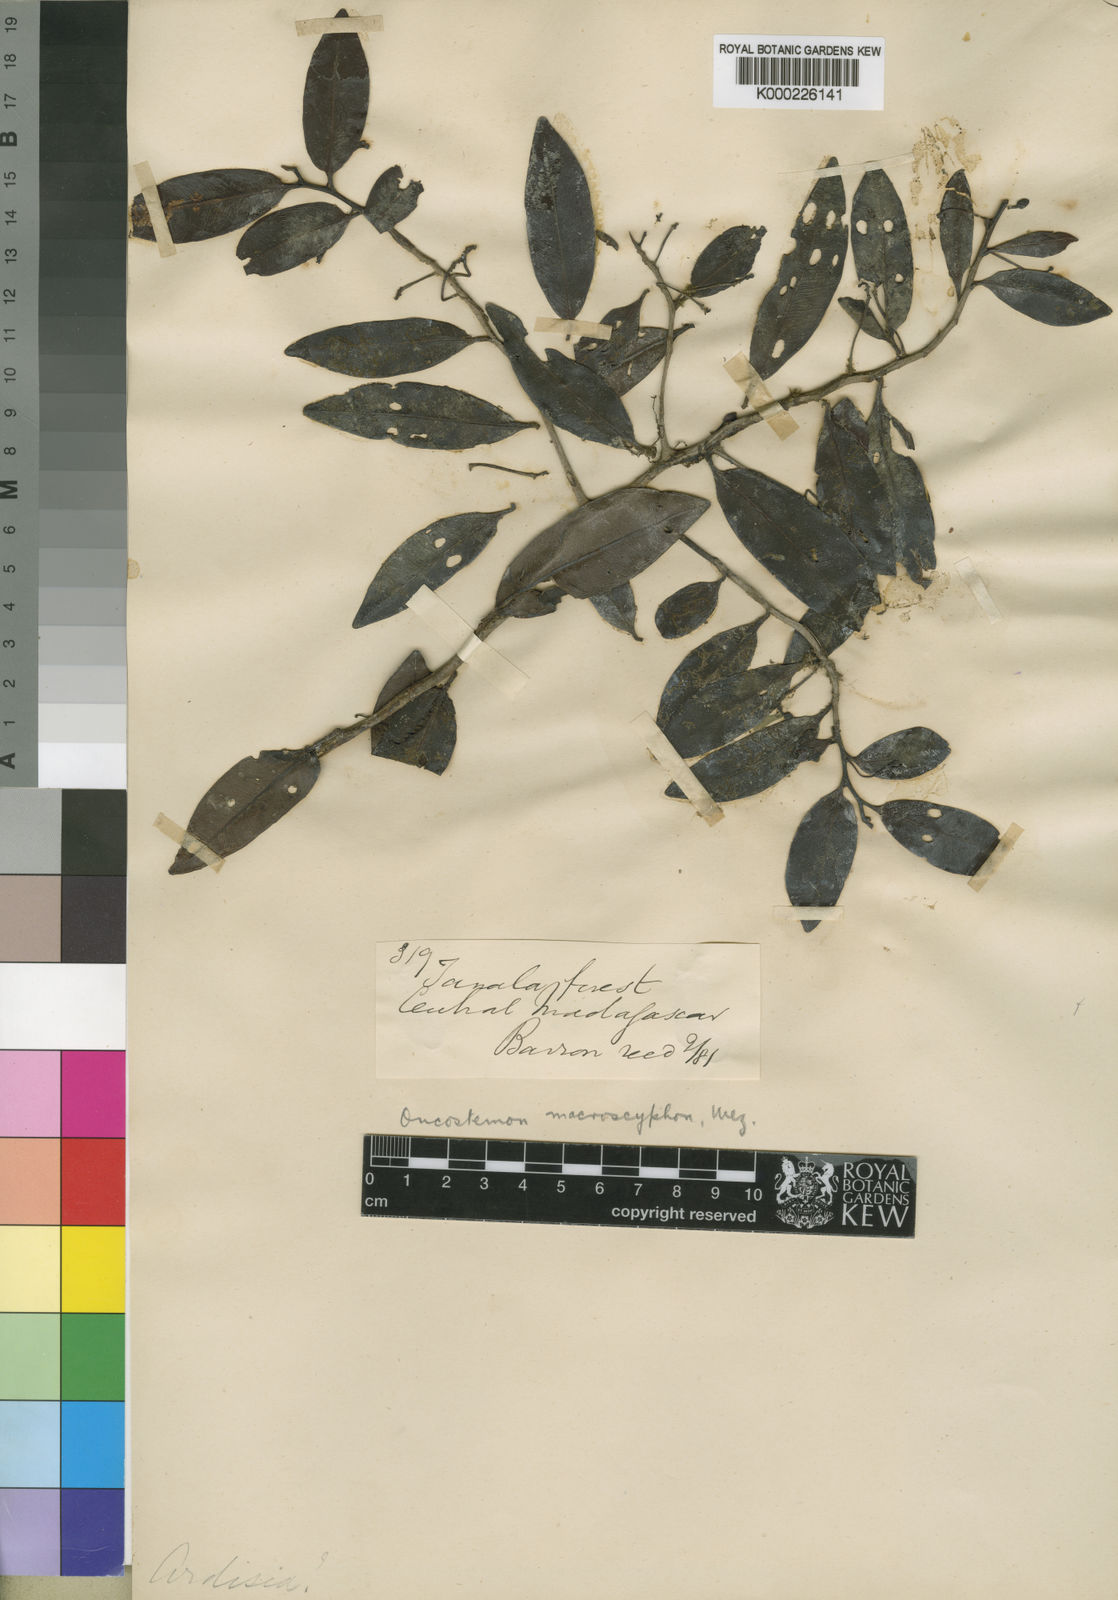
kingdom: Plantae
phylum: Tracheophyta
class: Magnoliopsida
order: Ericales
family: Primulaceae
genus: Oncostemum
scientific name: Oncostemum macroscyphon
